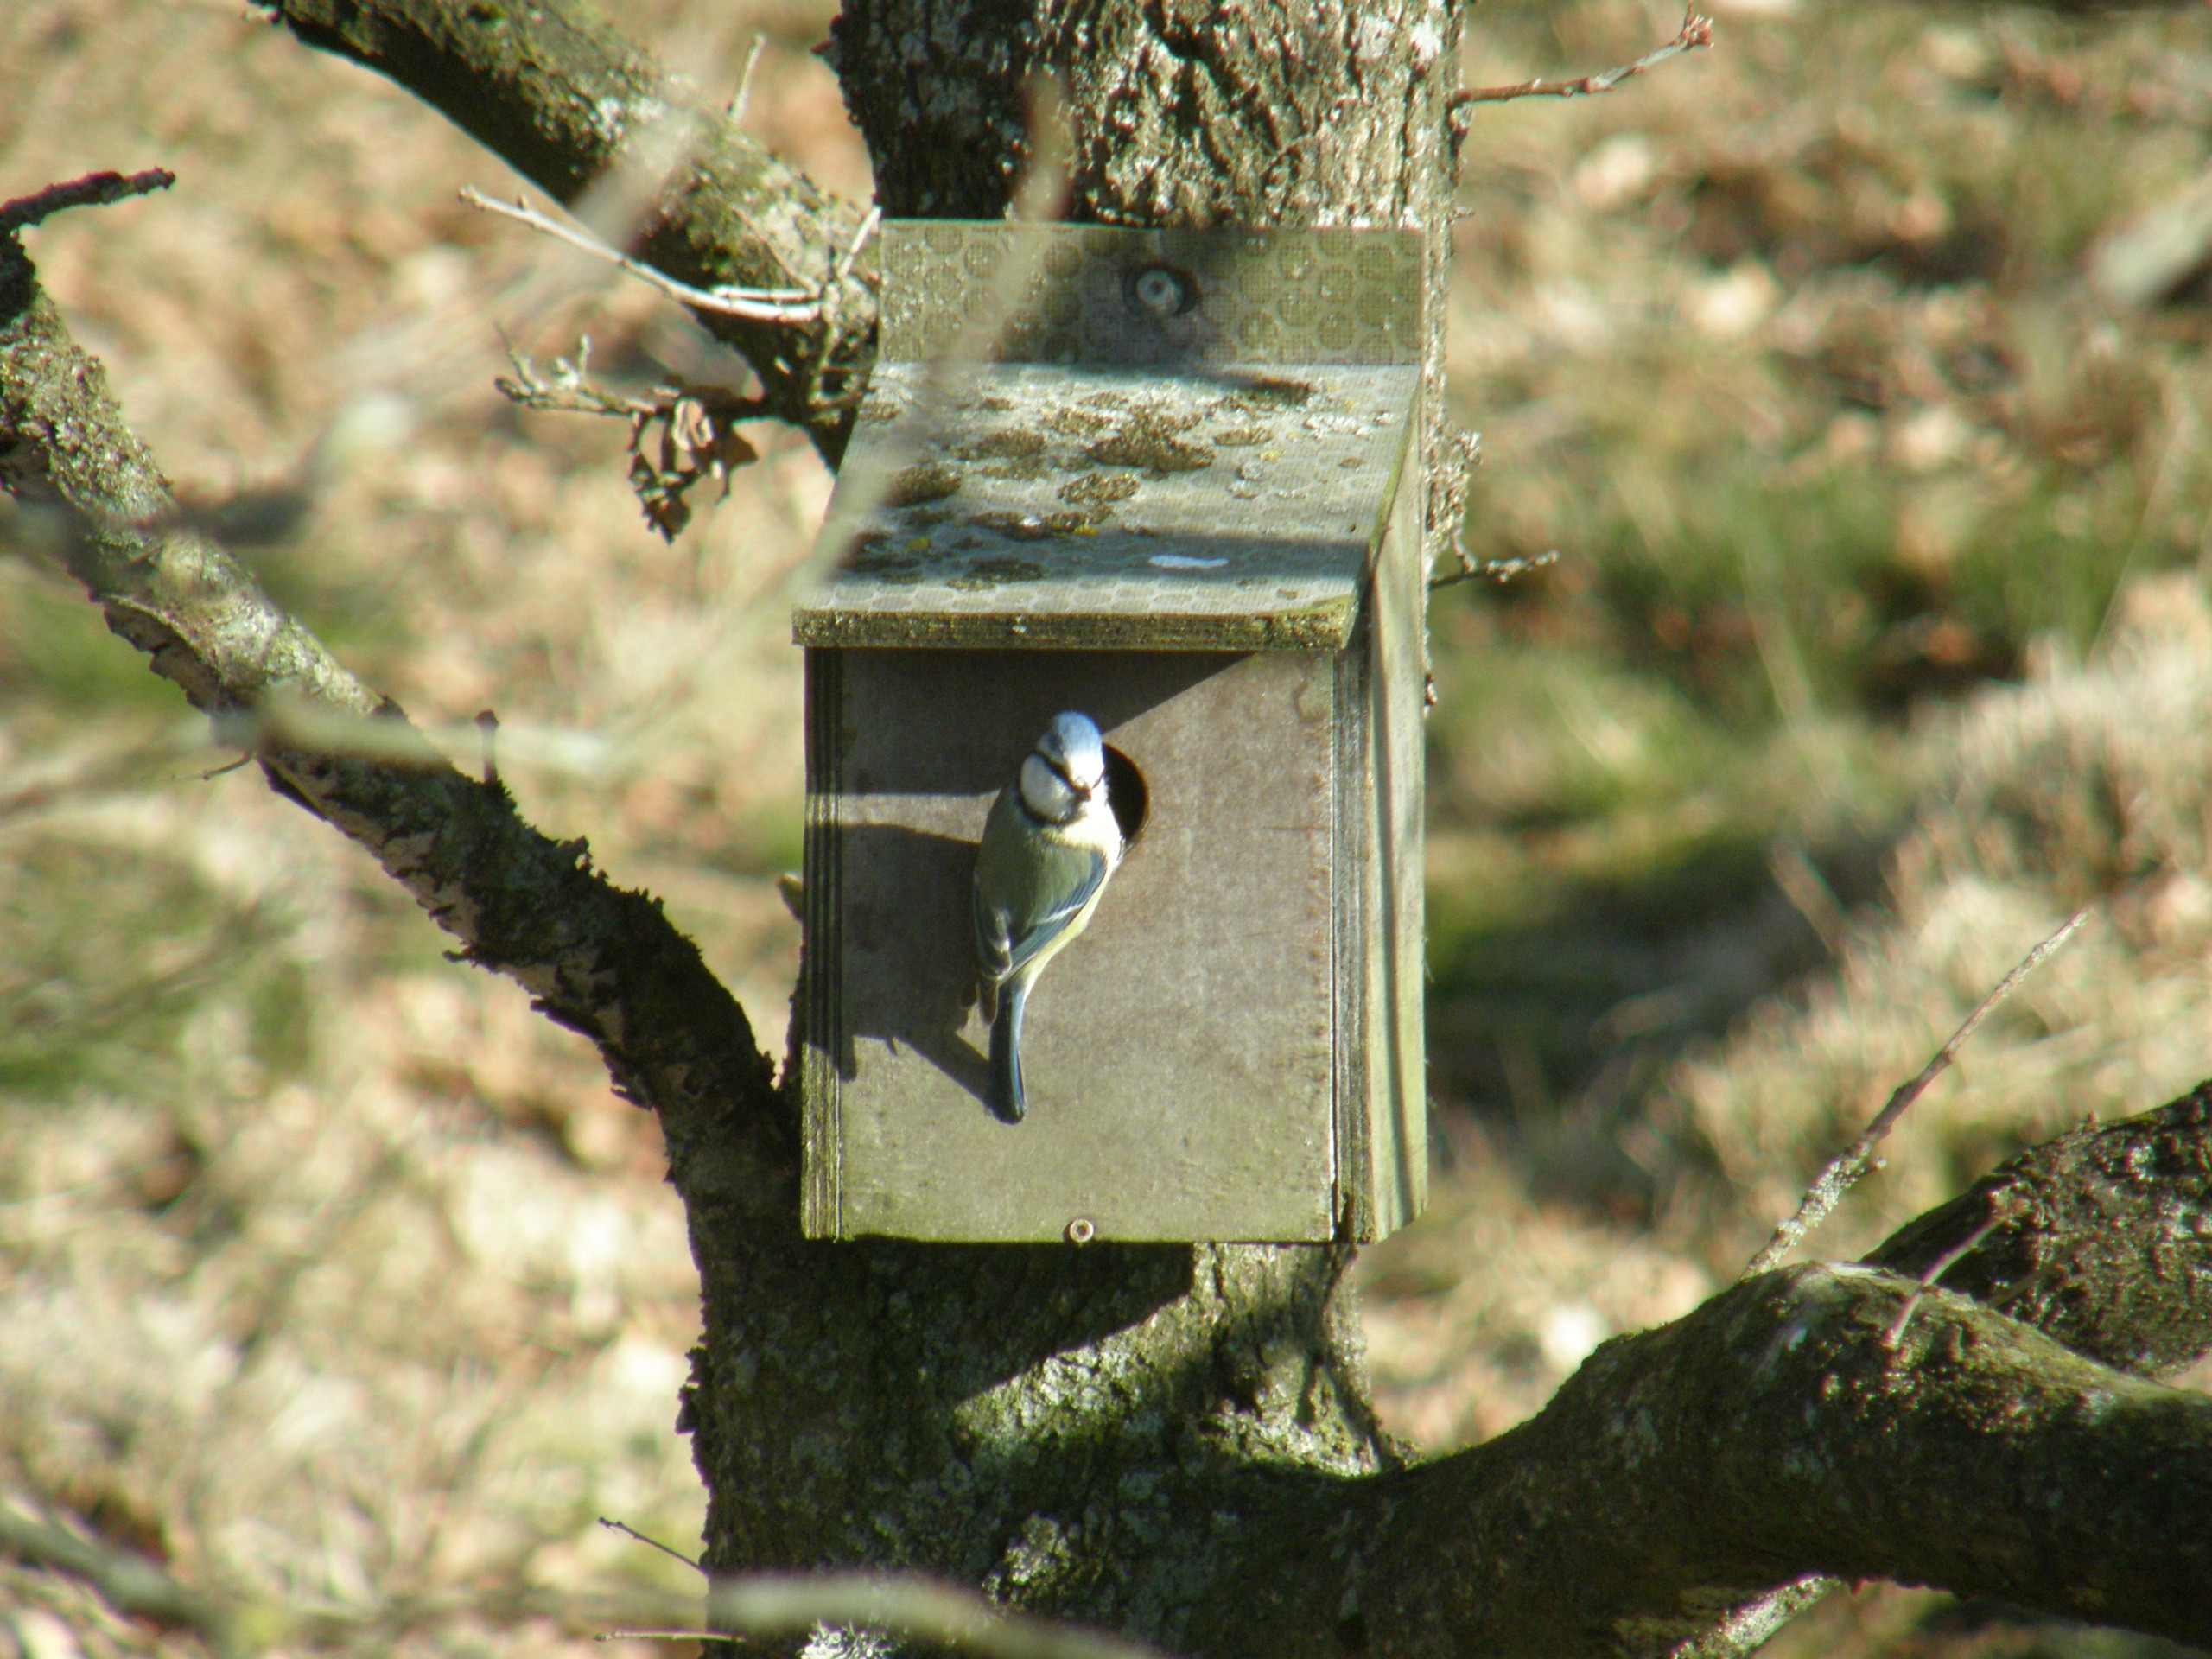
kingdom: Animalia
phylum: Chordata
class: Aves
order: Passeriformes
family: Paridae
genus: Cyanistes
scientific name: Cyanistes caeruleus
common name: Blåmejse
